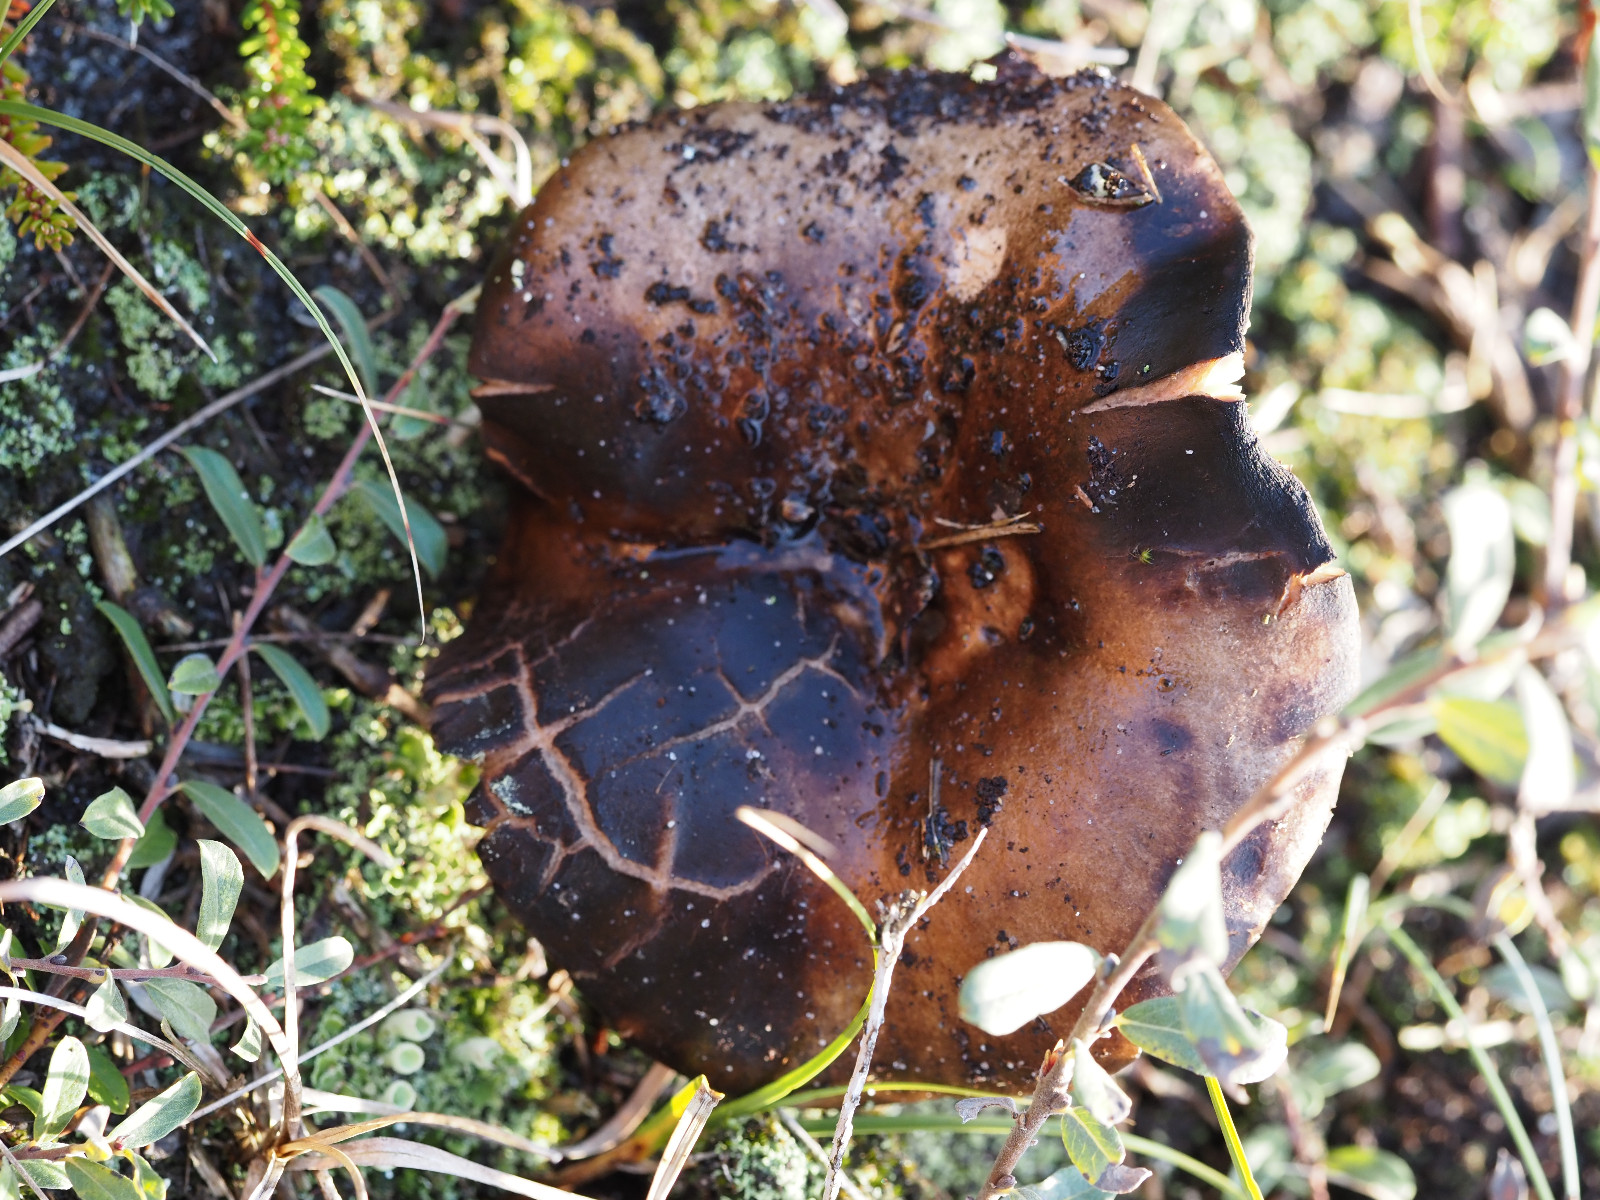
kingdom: Fungi
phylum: Basidiomycota
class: Agaricomycetes
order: Russulales
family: Russulaceae
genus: Russula
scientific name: Russula
